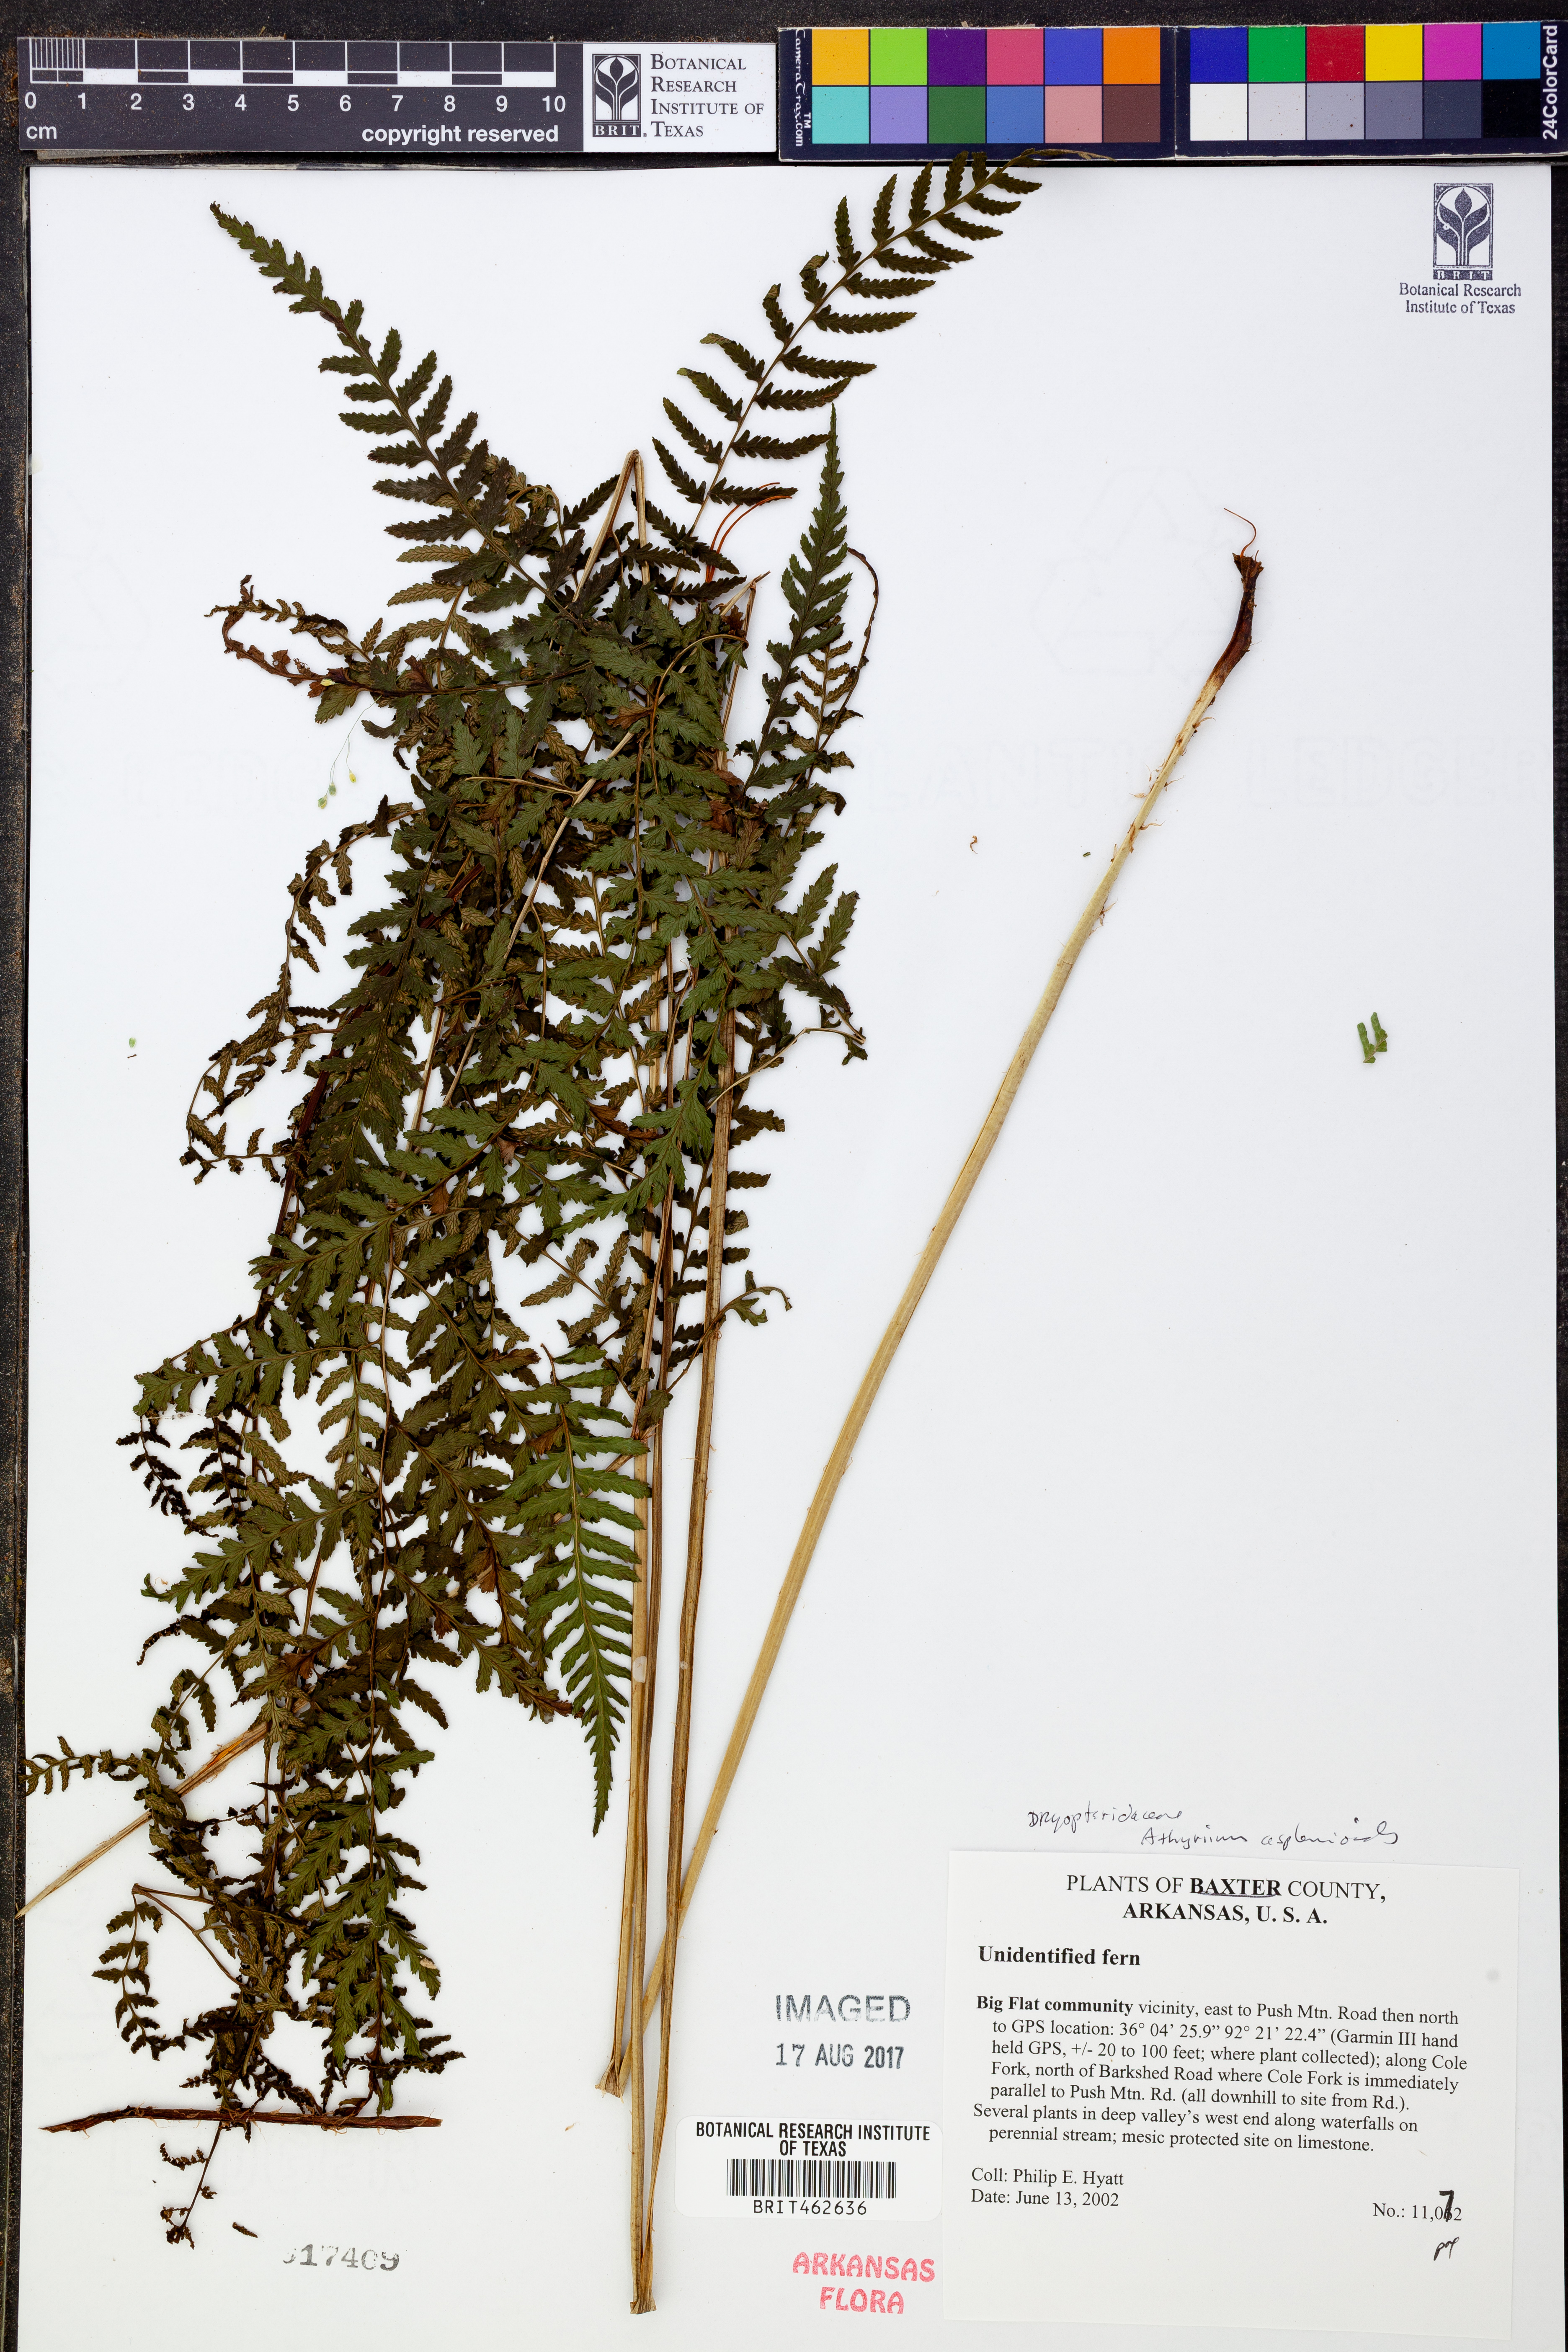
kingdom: Plantae
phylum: Tracheophyta
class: Polypodiopsida
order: Polypodiales
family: Athyriaceae
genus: Athyrium
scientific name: Athyrium asplenioides
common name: Southern lady fern
